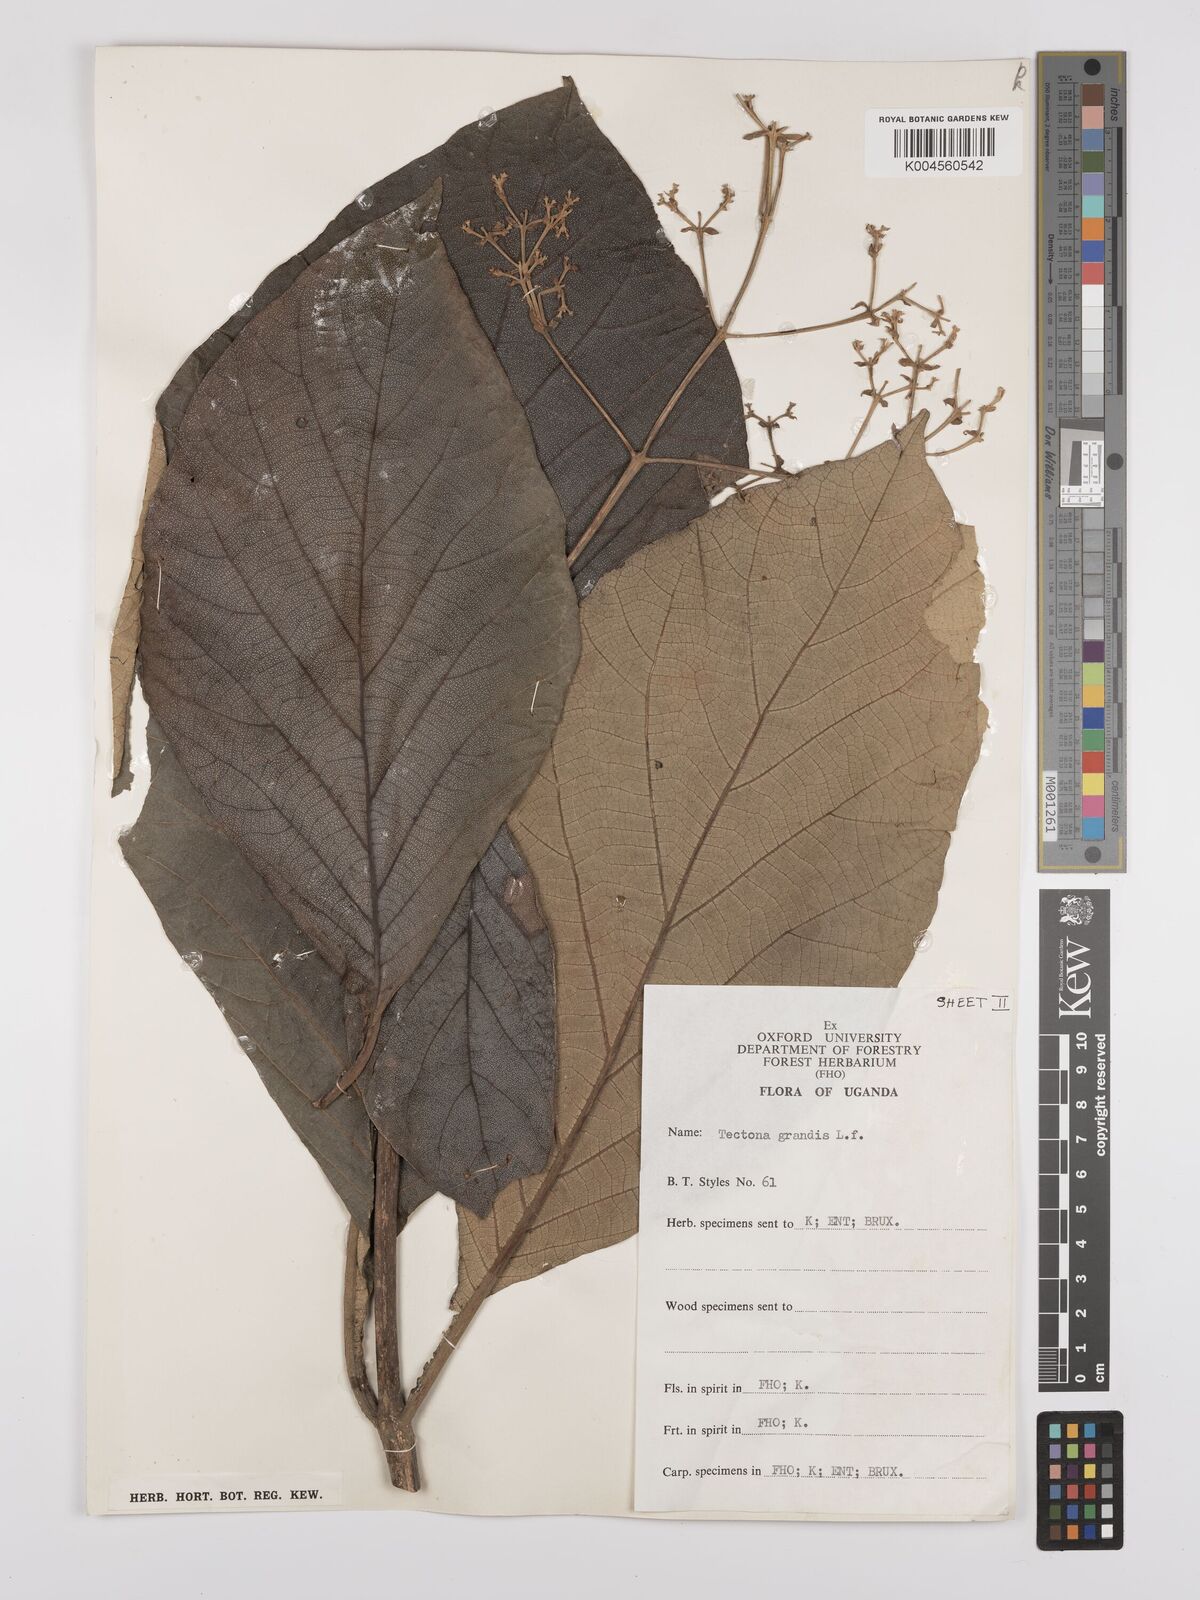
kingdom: Plantae
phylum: Tracheophyta
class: Magnoliopsida
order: Lamiales
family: Lamiaceae
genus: Tectona
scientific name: Tectona grandis
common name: Teak
